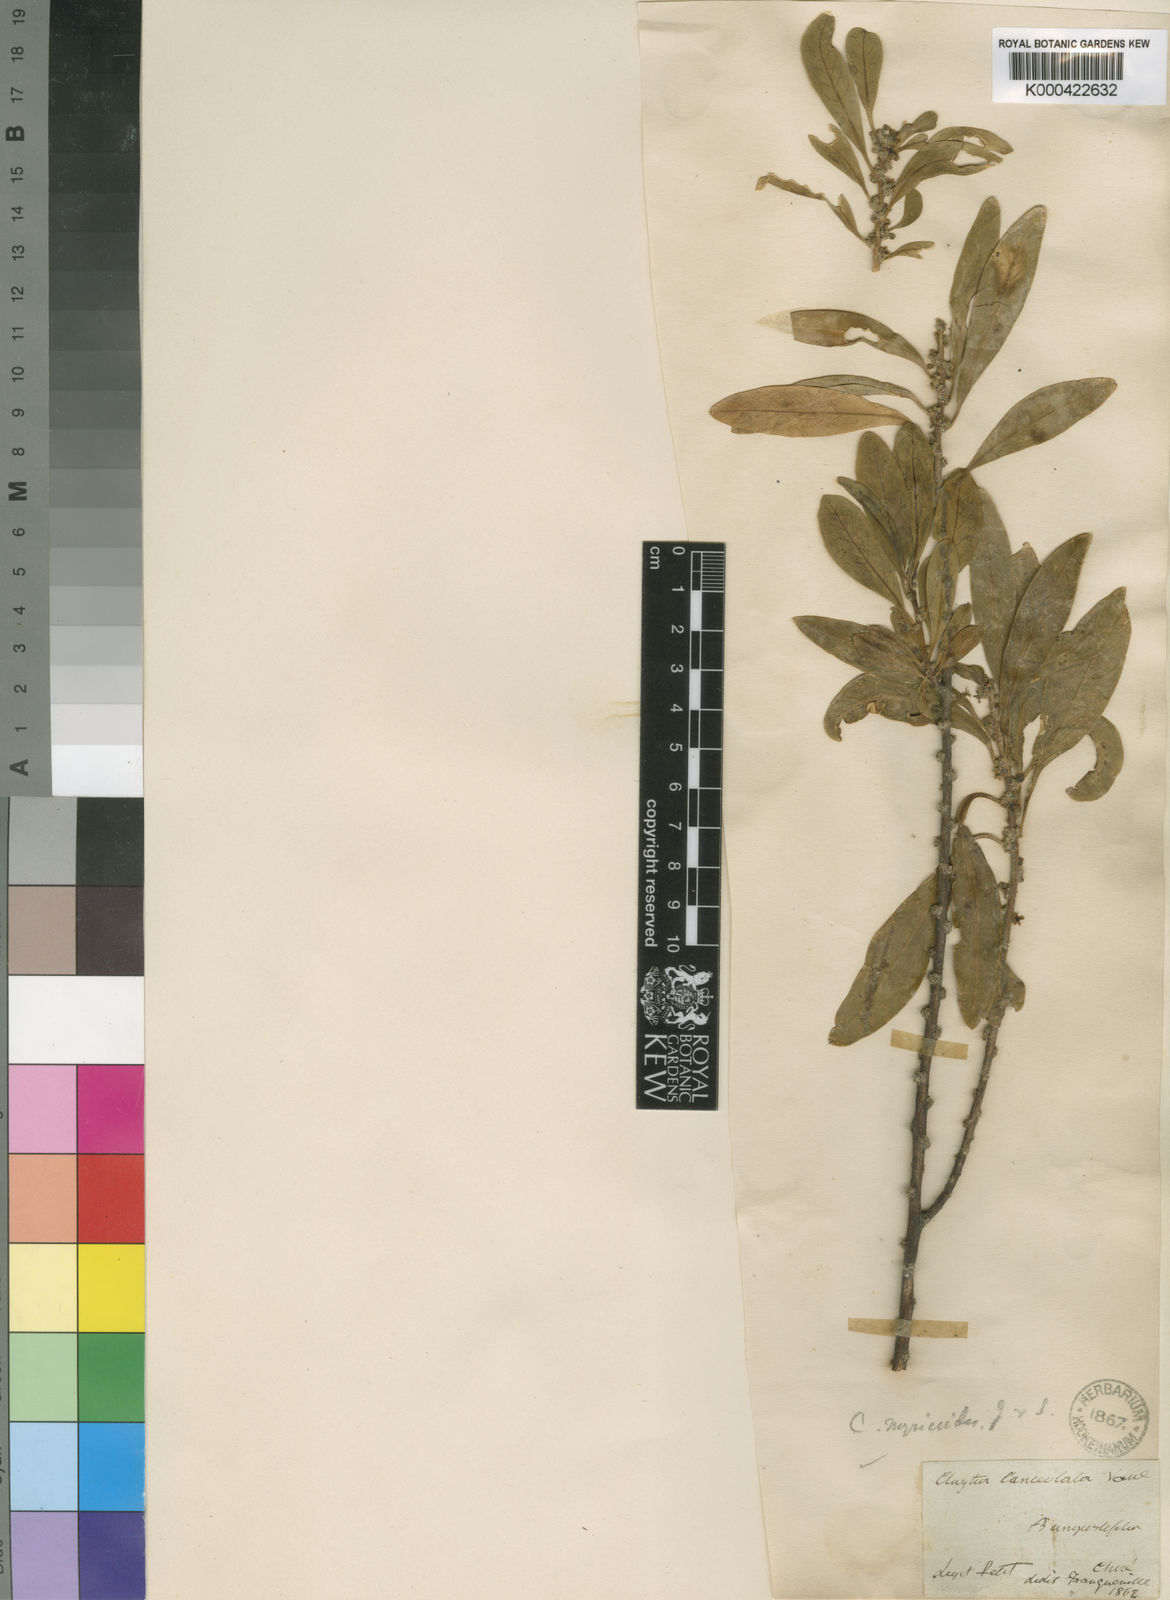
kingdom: Plantae
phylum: Tracheophyta
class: Magnoliopsida
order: Malpighiales
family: Peraceae
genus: Clutia
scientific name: Clutia abyssinica
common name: Large lightning bush
